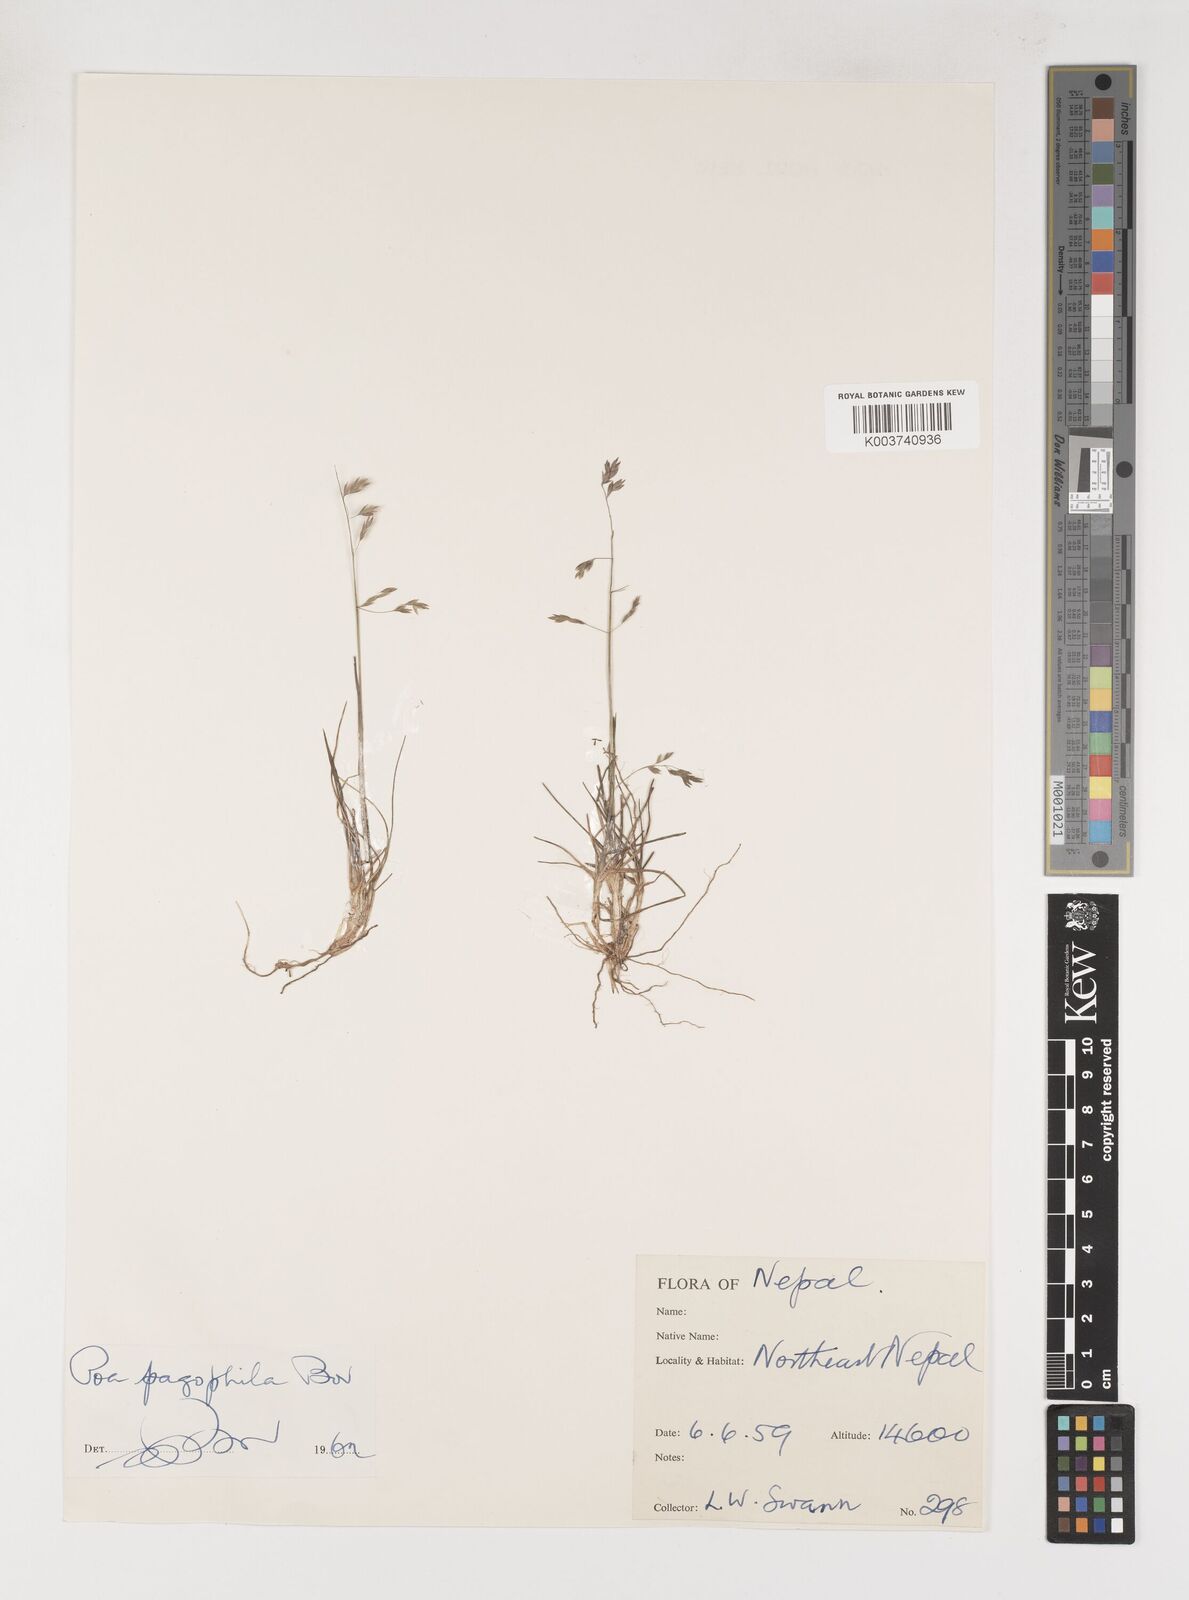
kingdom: Plantae
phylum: Tracheophyta
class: Liliopsida
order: Poales
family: Poaceae
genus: Poa
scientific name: Poa pagophila
